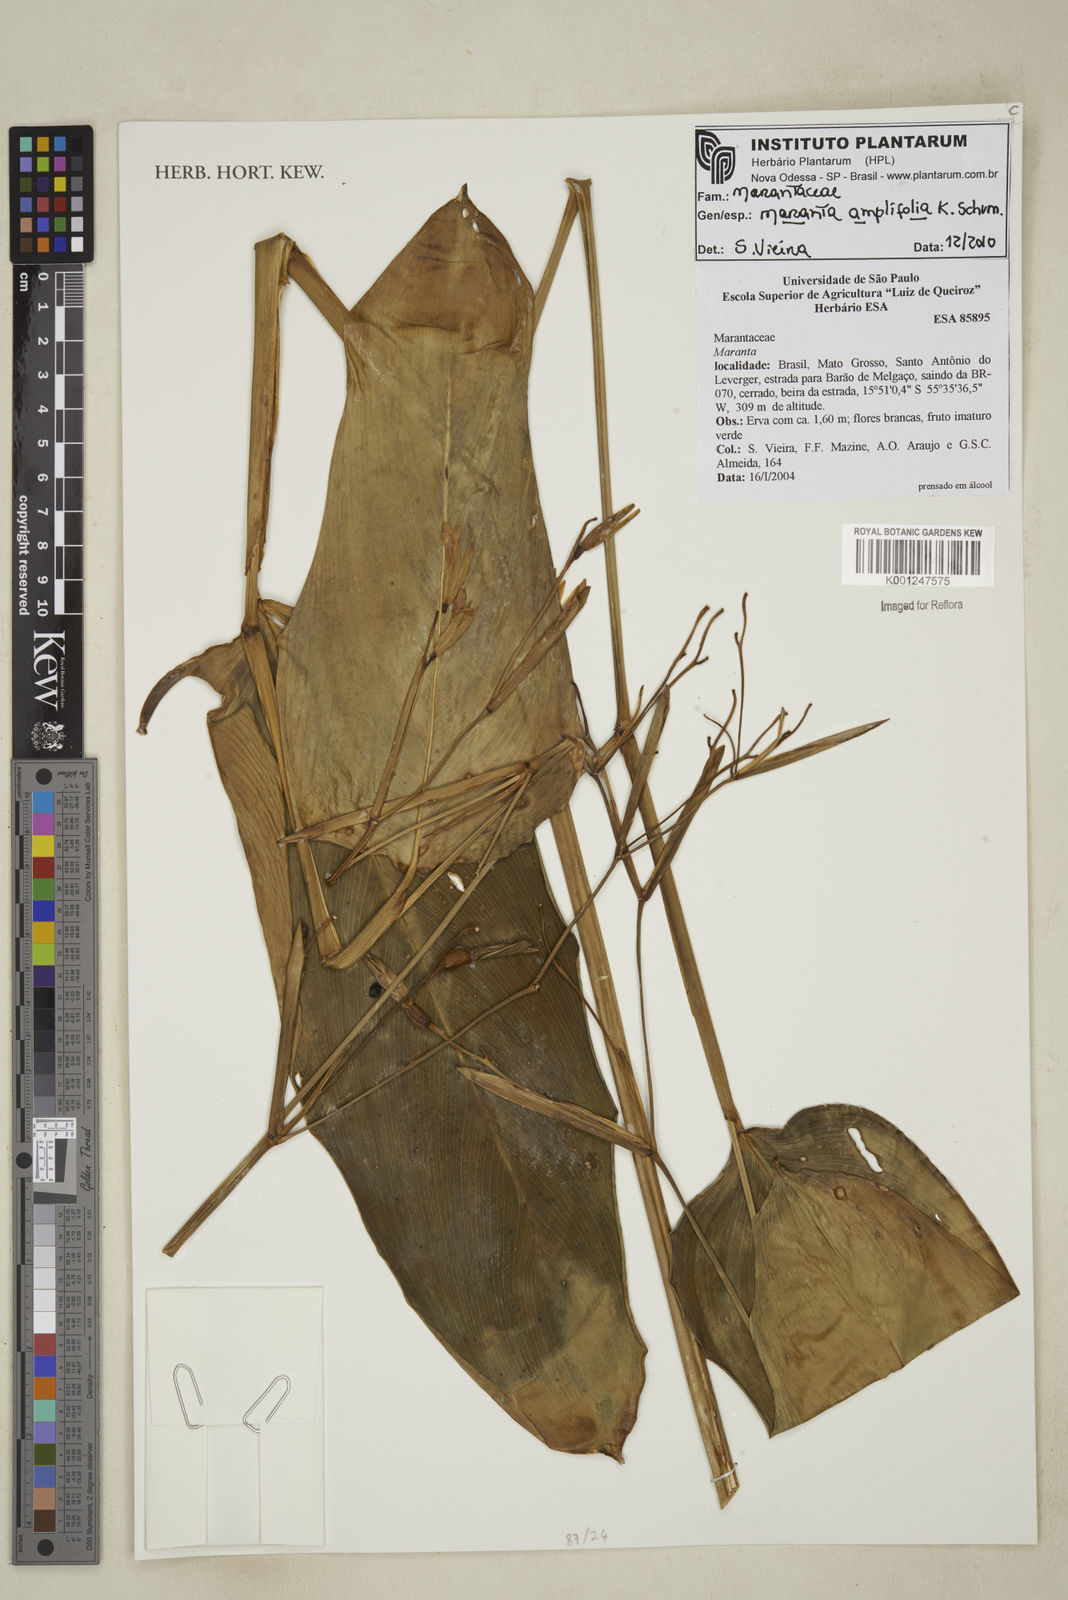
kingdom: Plantae
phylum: Tracheophyta
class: Liliopsida
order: Zingiberales
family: Marantaceae
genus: Maranta
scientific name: Maranta amplifolia
